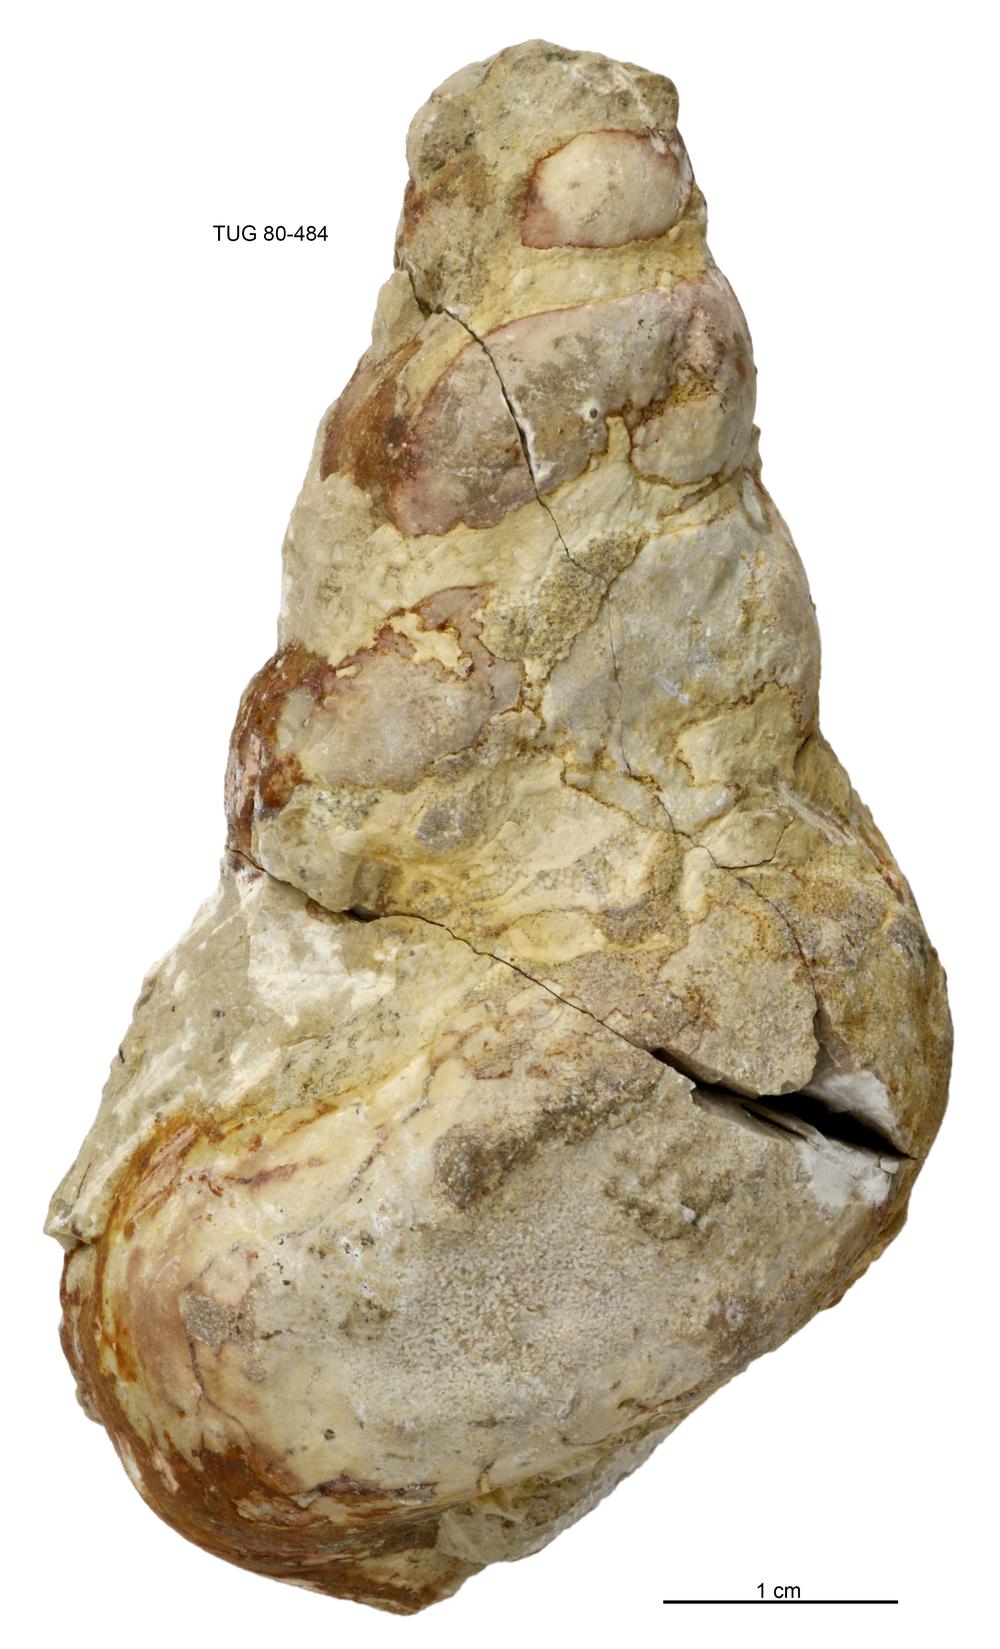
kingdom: Animalia
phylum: Mollusca
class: Gastropoda
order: Pleurotomariida
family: Murchisoniidae
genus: Murchisonia
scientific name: Murchisonia insignis
